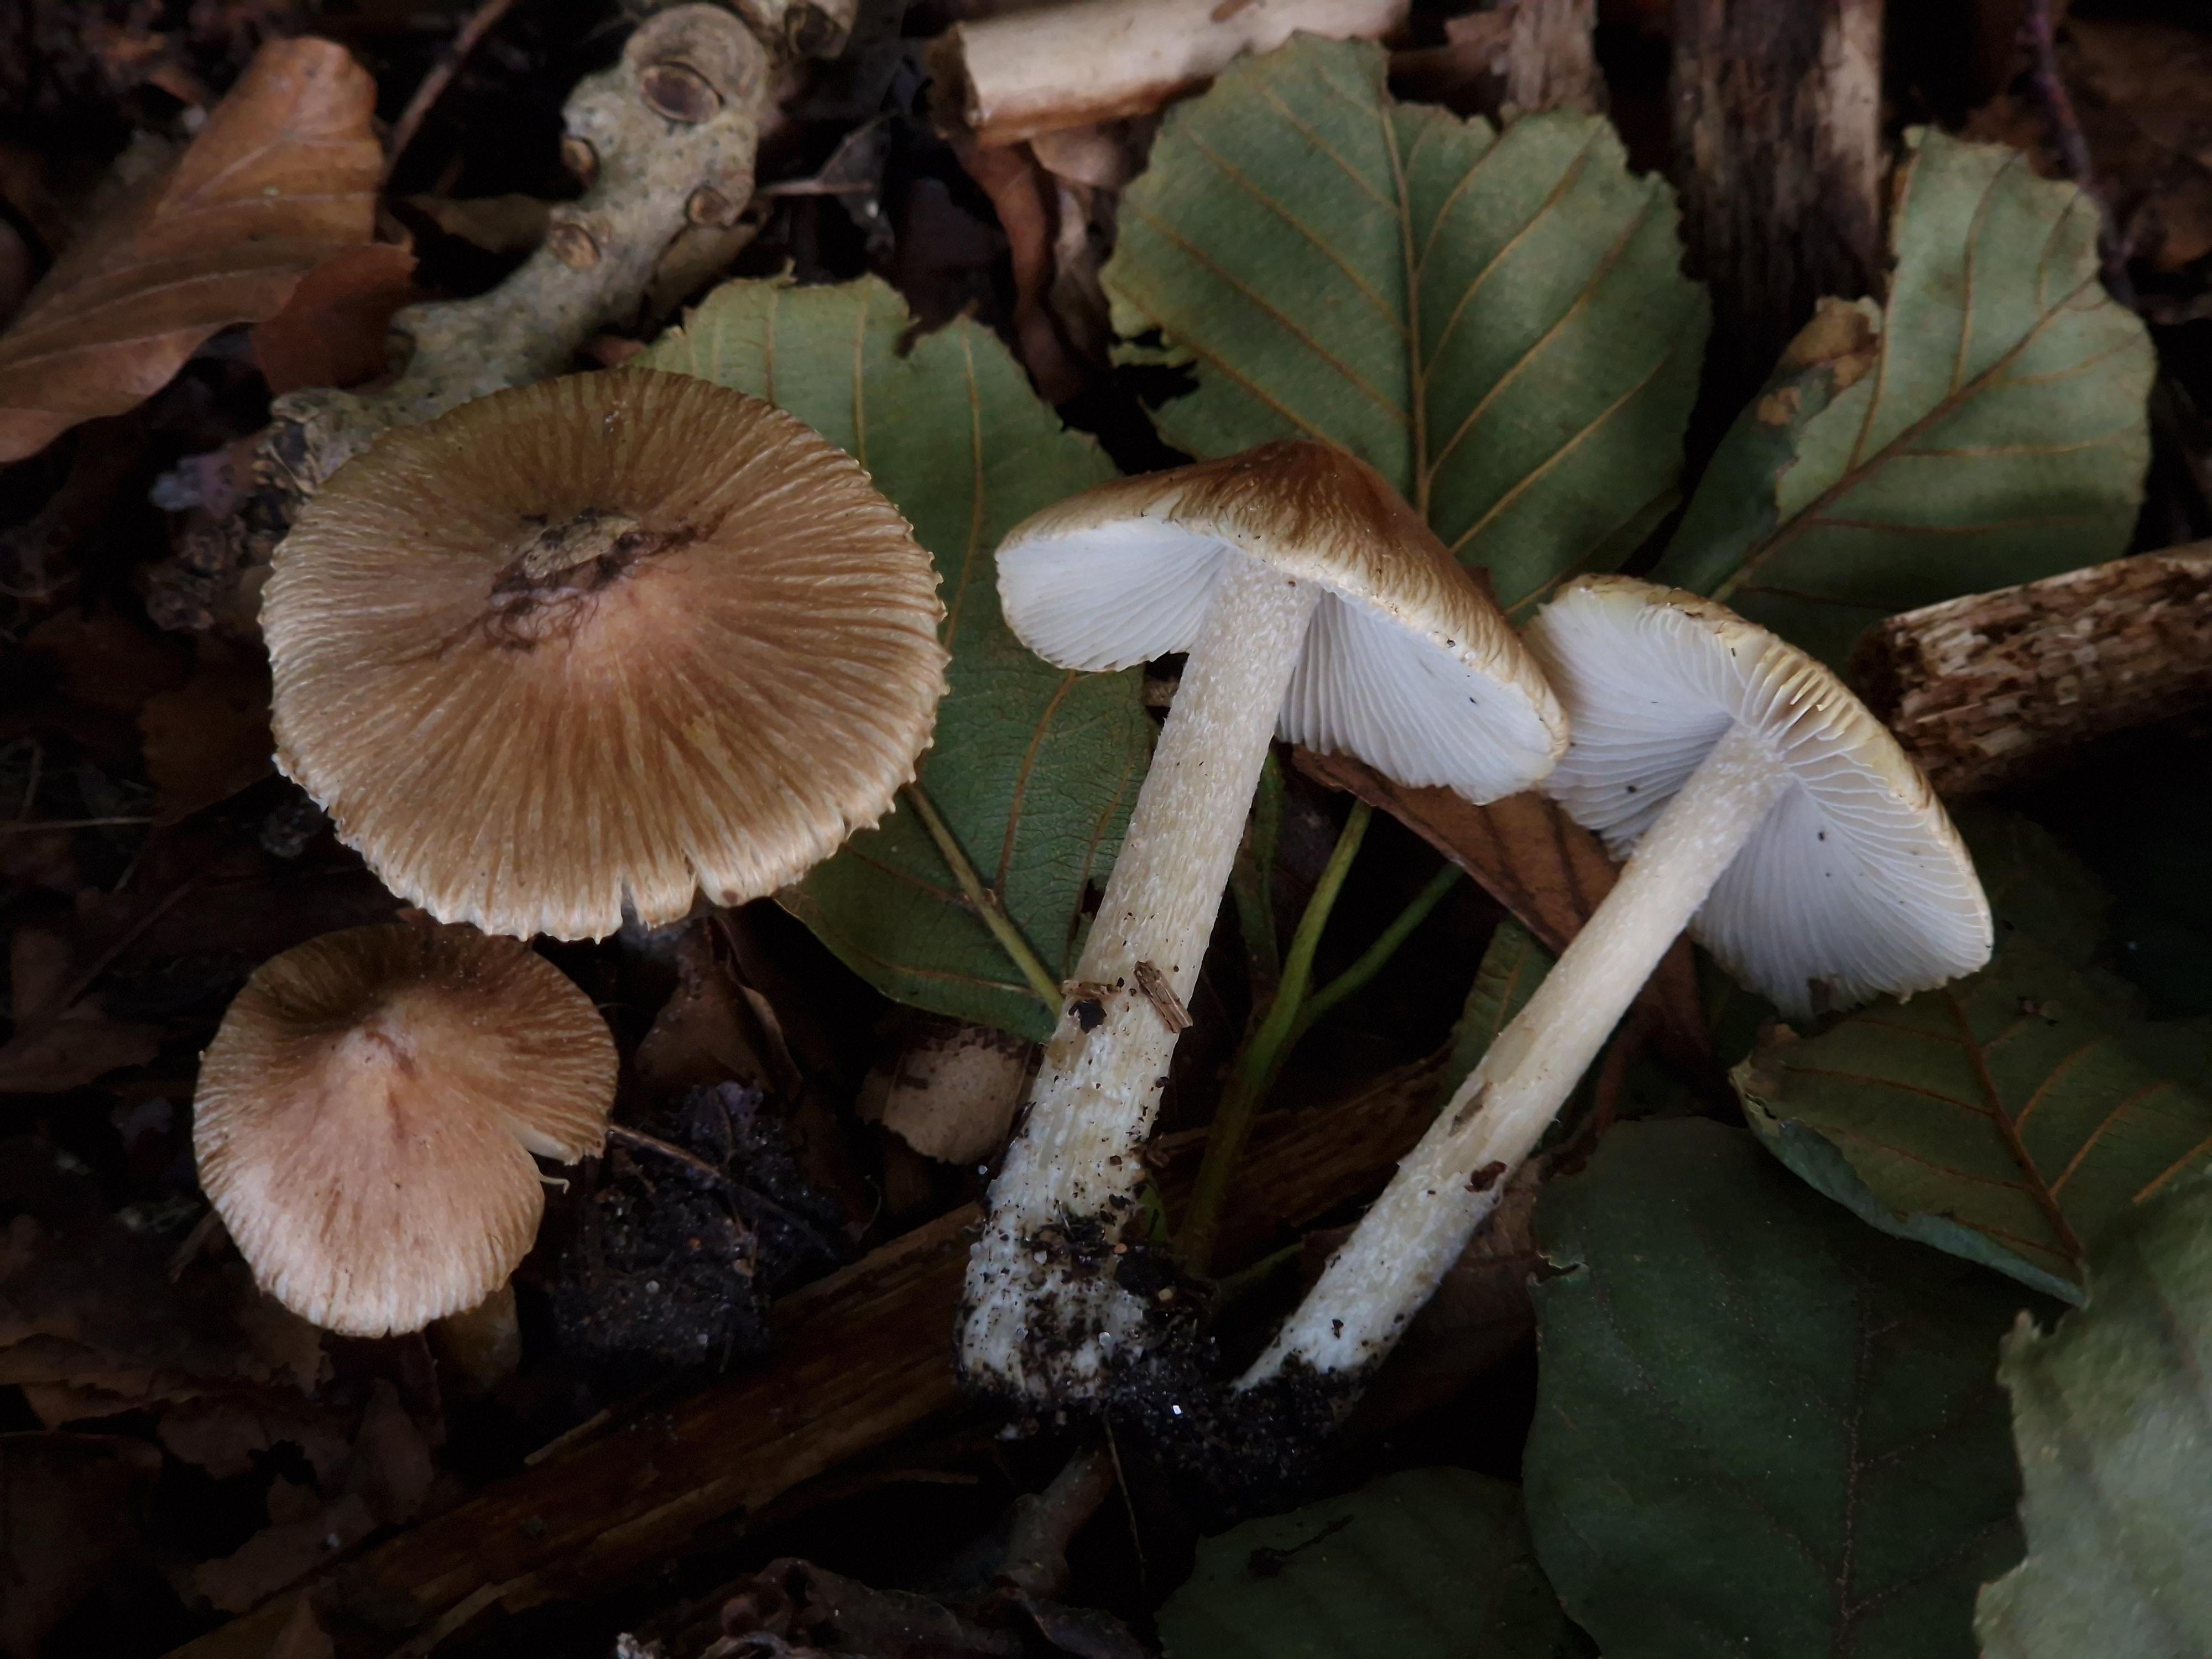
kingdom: Fungi
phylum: Basidiomycota
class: Agaricomycetes
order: Agaricales
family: Inocybaceae
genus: Pseudosperma
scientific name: Pseudosperma
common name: trævlhat
